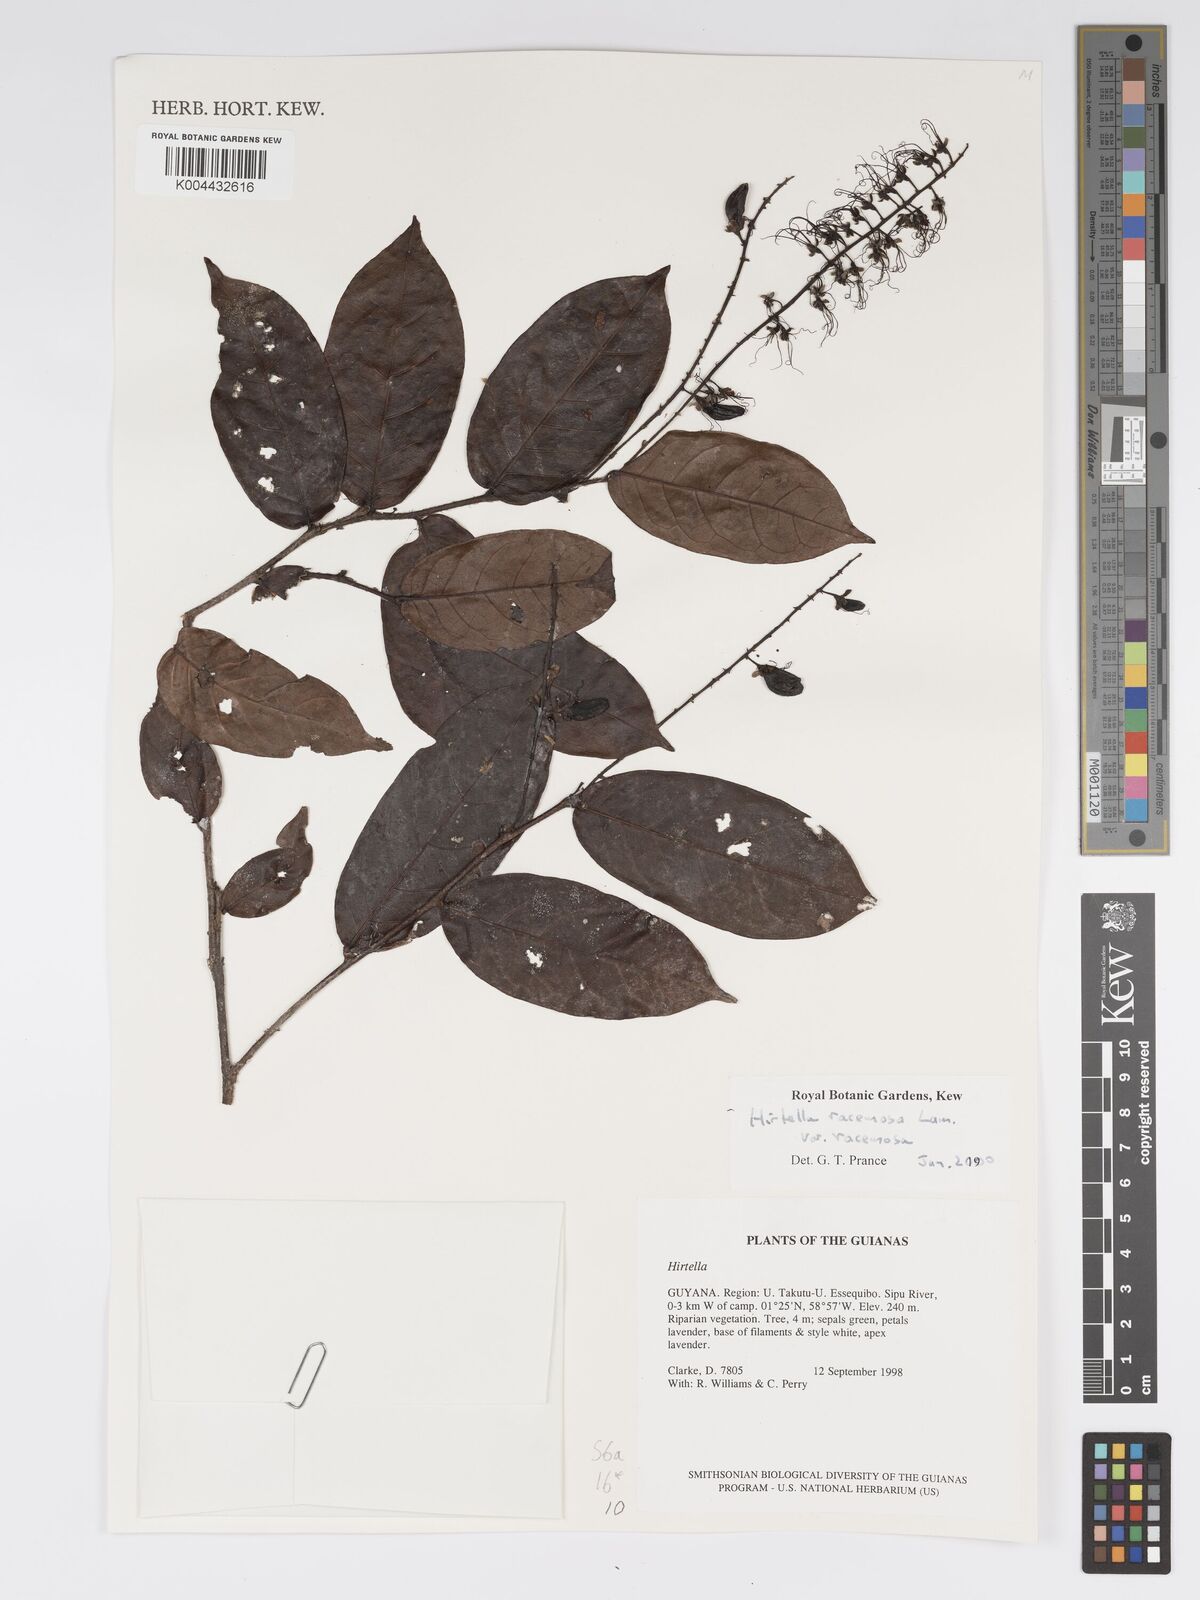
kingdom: Plantae
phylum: Tracheophyta
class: Magnoliopsida
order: Malpighiales
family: Chrysobalanaceae
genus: Hirtella
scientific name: Hirtella racemosa
